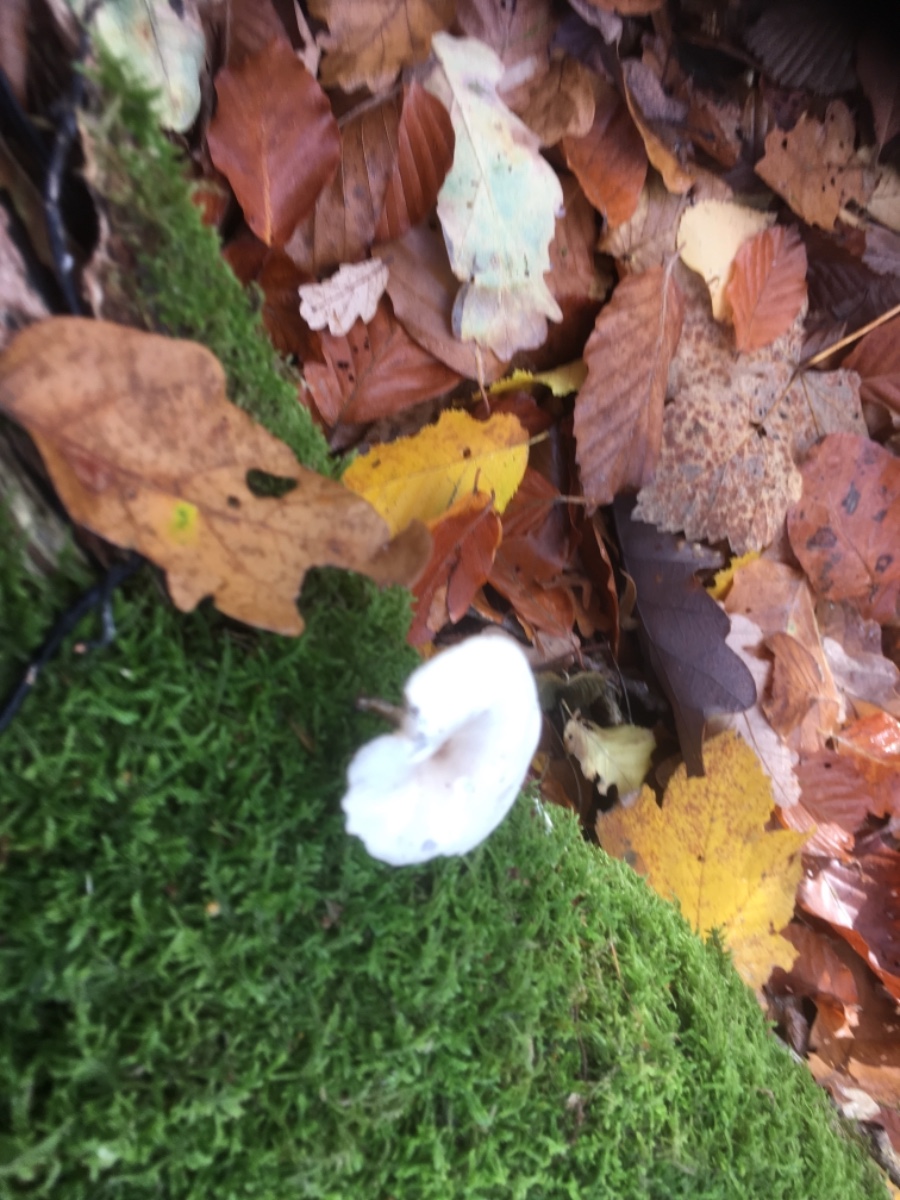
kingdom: Fungi
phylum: Basidiomycota
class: Agaricomycetes
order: Agaricales
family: Tricholomataceae
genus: Clitocybe
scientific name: Clitocybe
